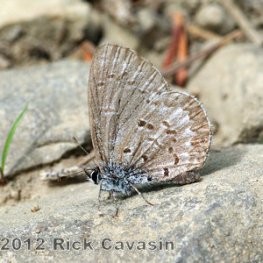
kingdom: Animalia
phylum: Arthropoda
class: Insecta
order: Lepidoptera
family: Lycaenidae
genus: Celastrina
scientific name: Celastrina lucia
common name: Northern Spring Azure
